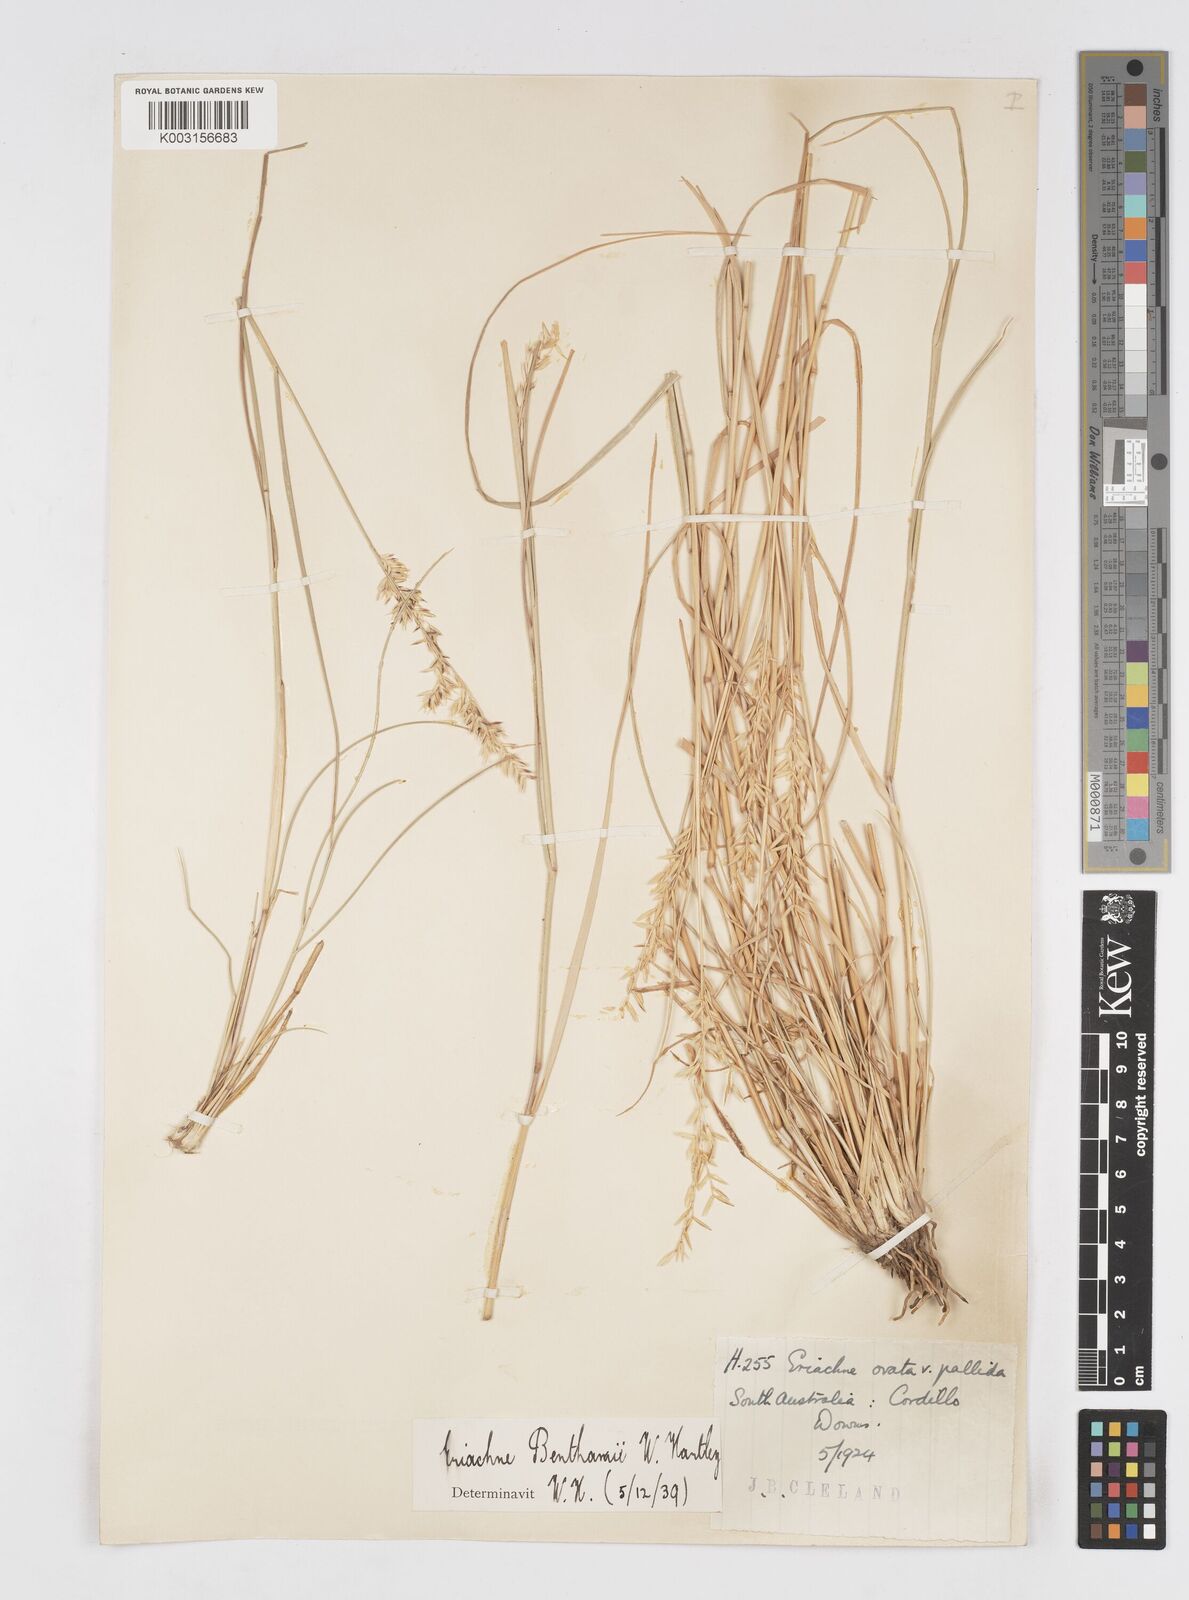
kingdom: Plantae
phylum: Tracheophyta
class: Liliopsida
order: Poales
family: Poaceae
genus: Eriachne
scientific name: Eriachne benthamii
